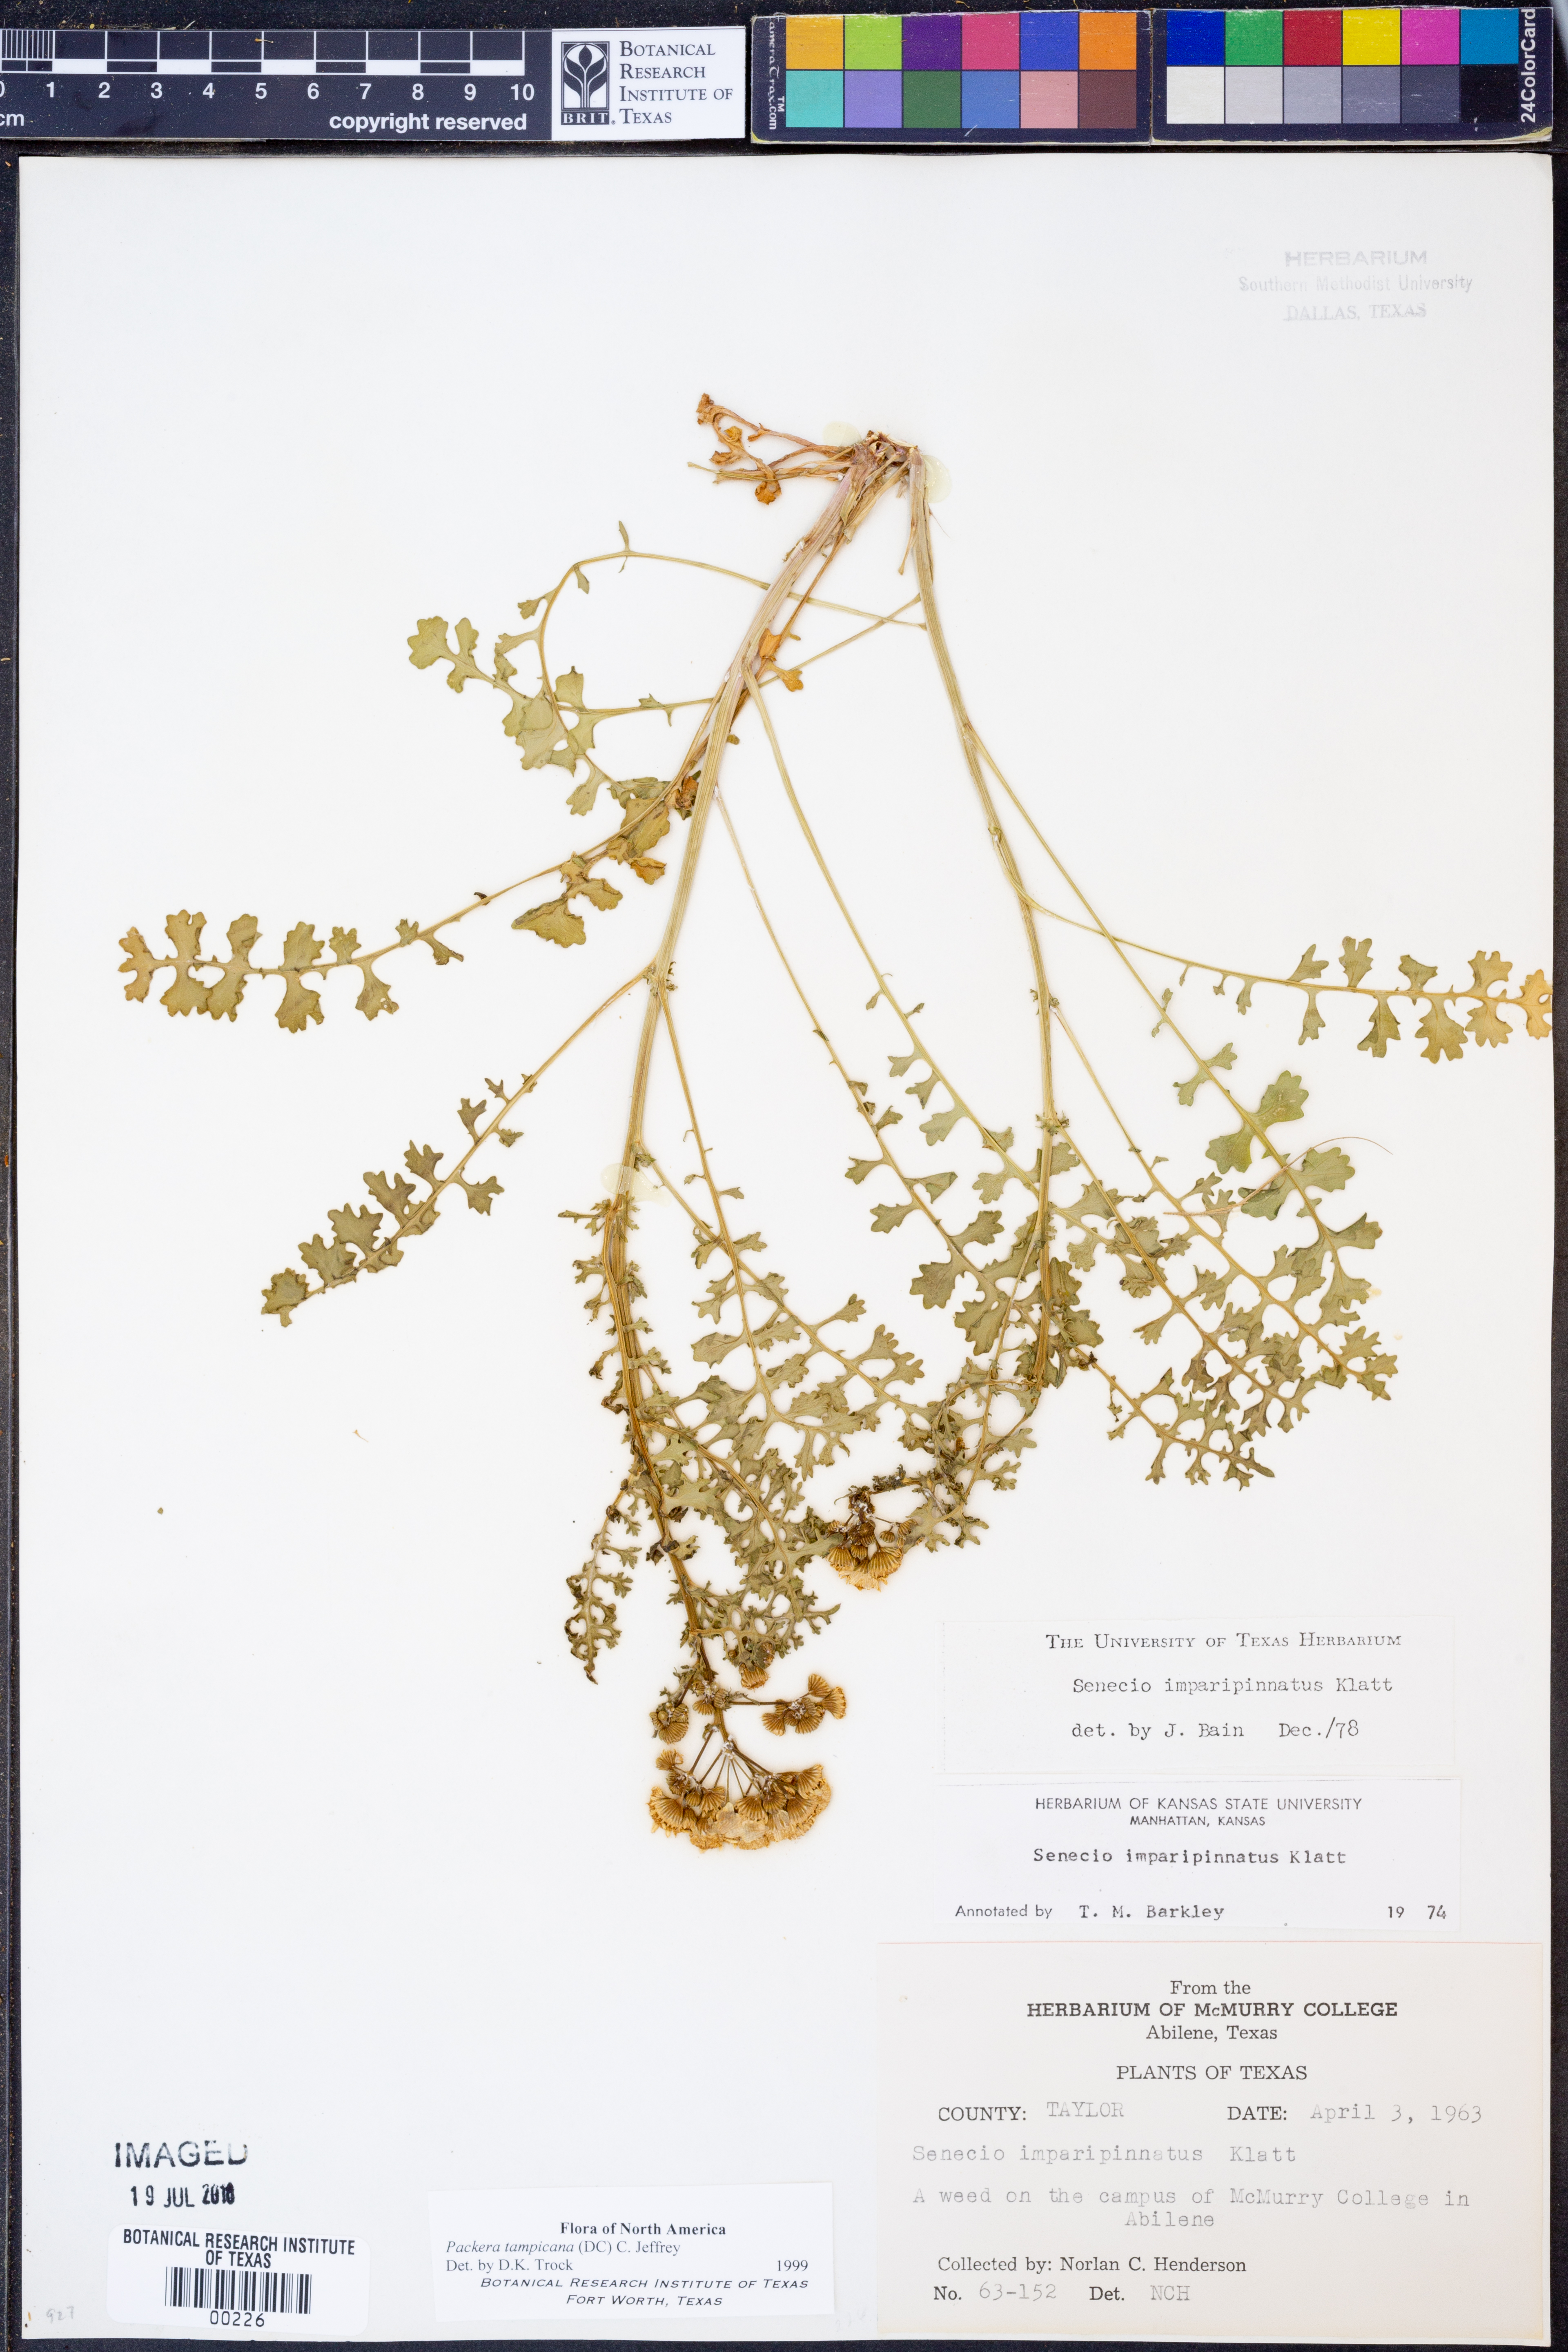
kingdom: Plantae
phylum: Tracheophyta
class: Magnoliopsida
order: Asterales
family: Asteraceae
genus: Packera
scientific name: Packera tampicana
